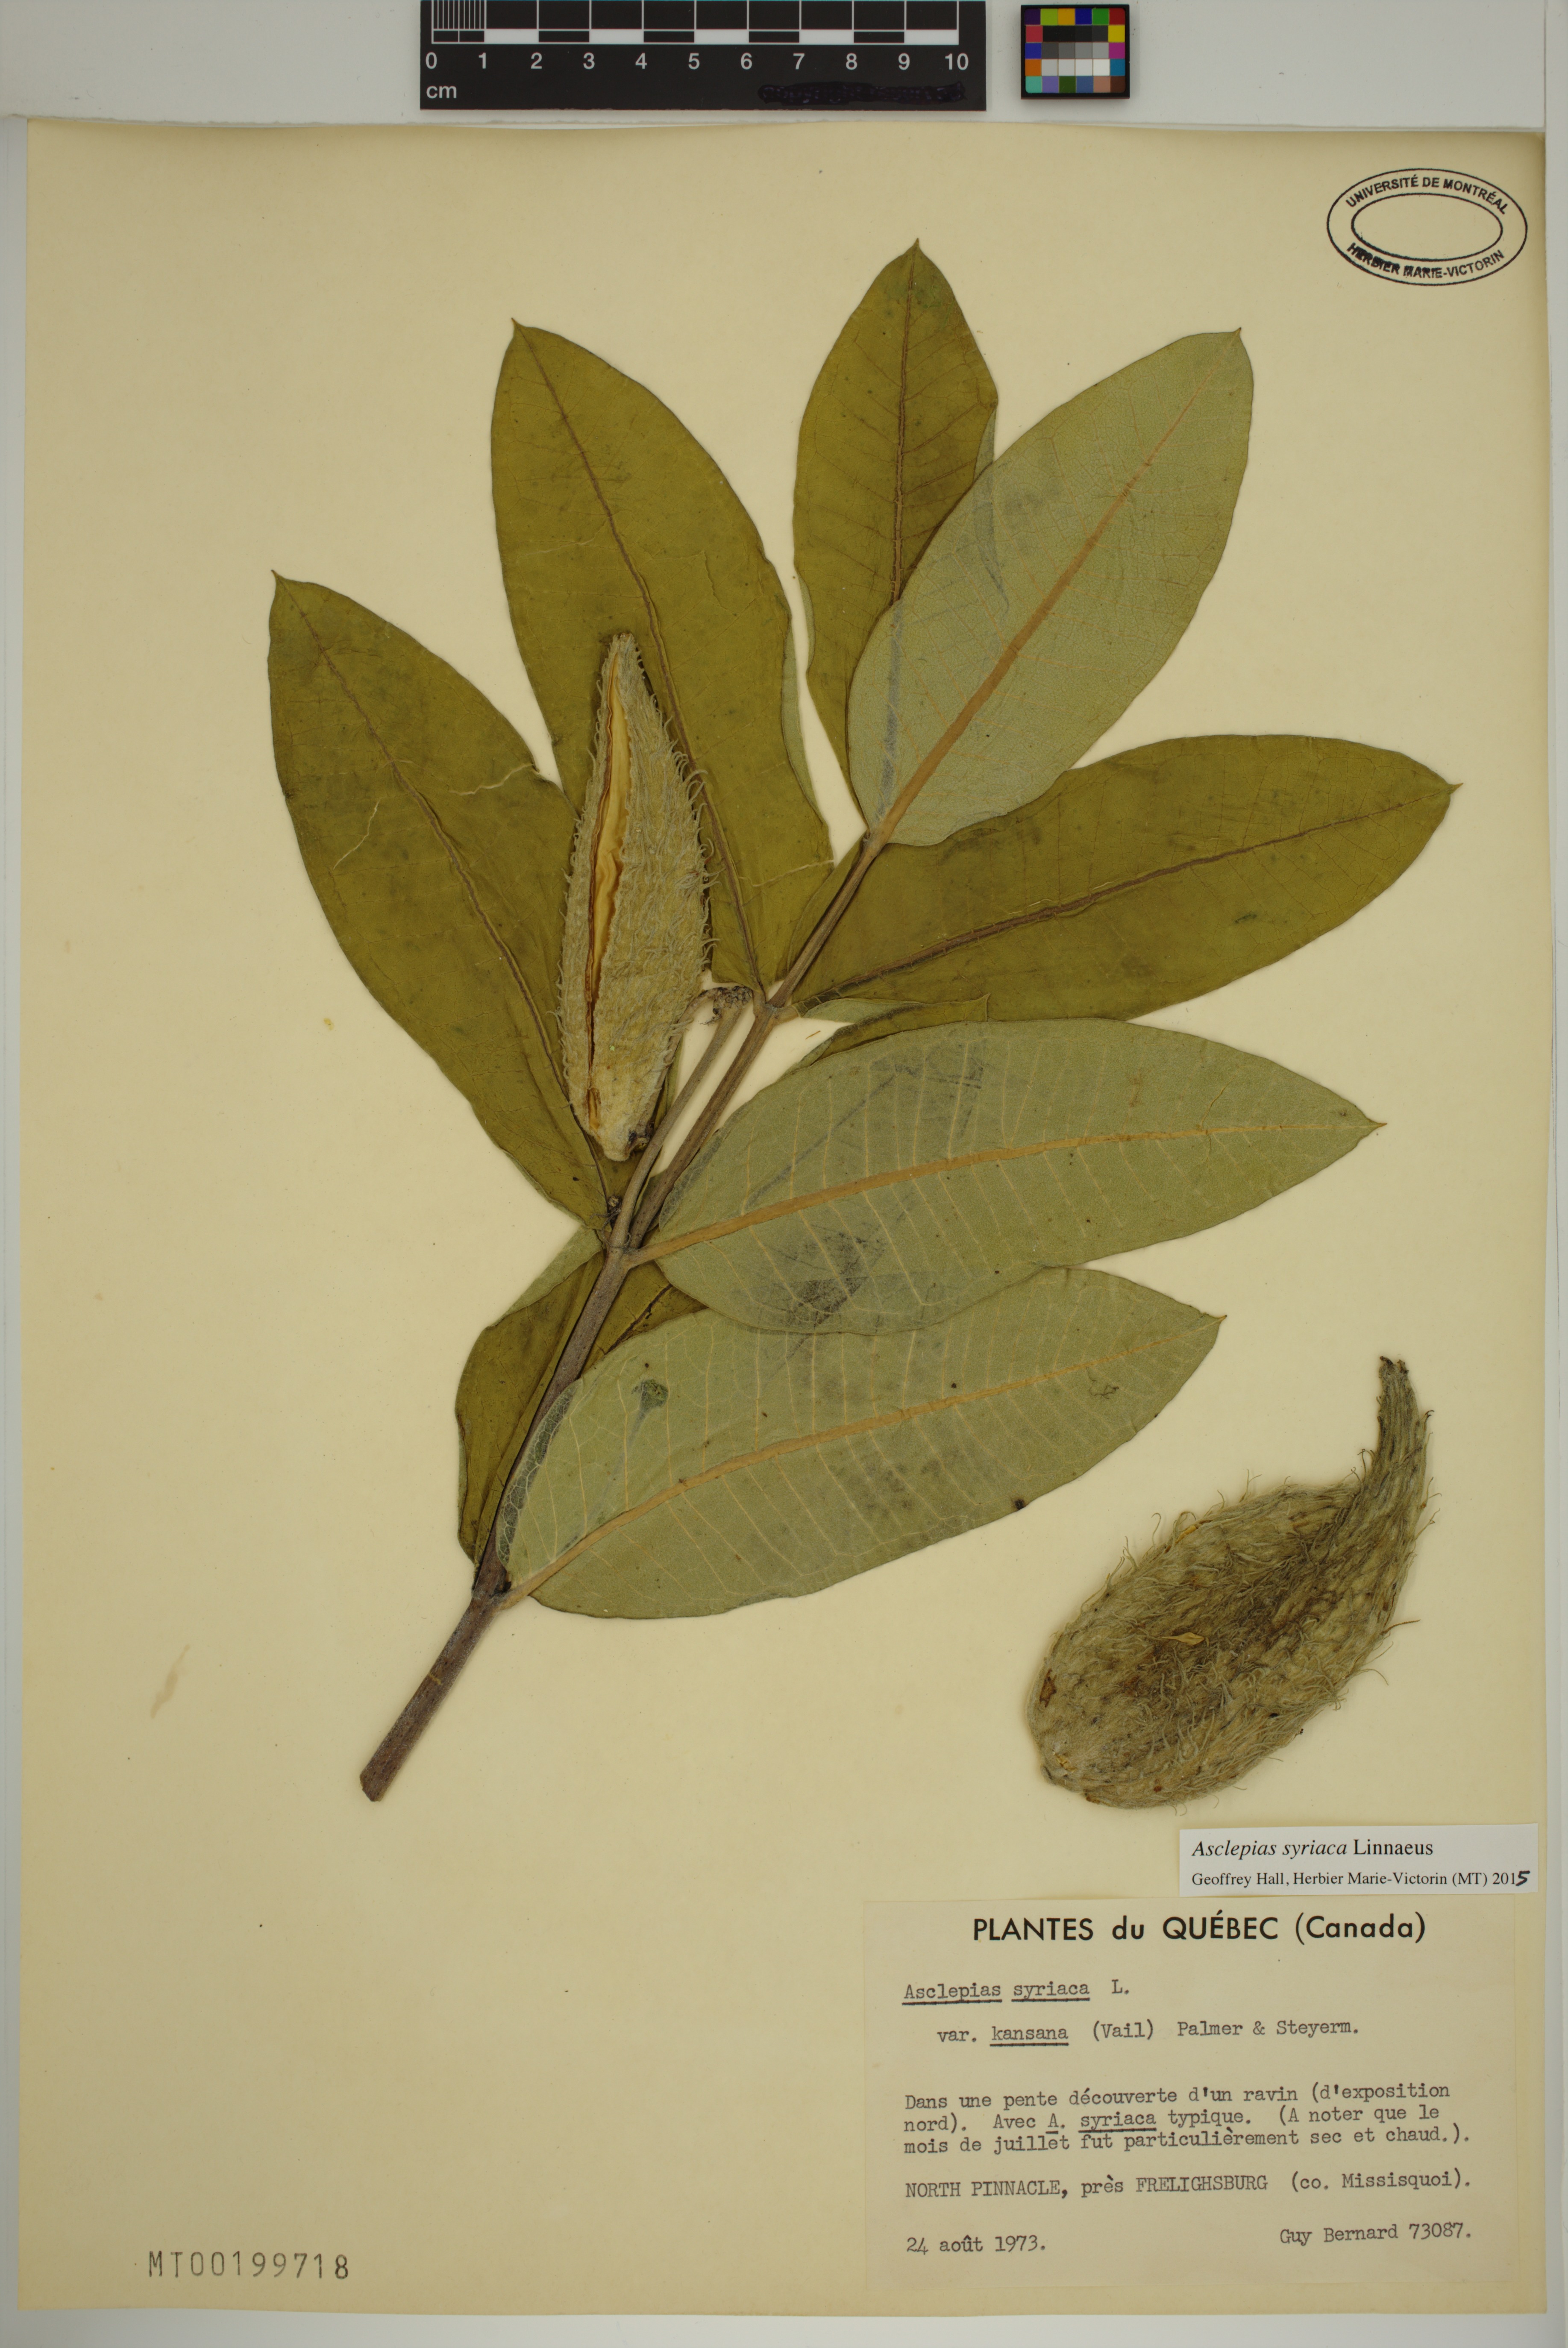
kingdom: Plantae
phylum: Tracheophyta
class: Magnoliopsida
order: Gentianales
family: Apocynaceae
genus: Asclepias
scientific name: Asclepias syriaca
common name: Common milkweed
